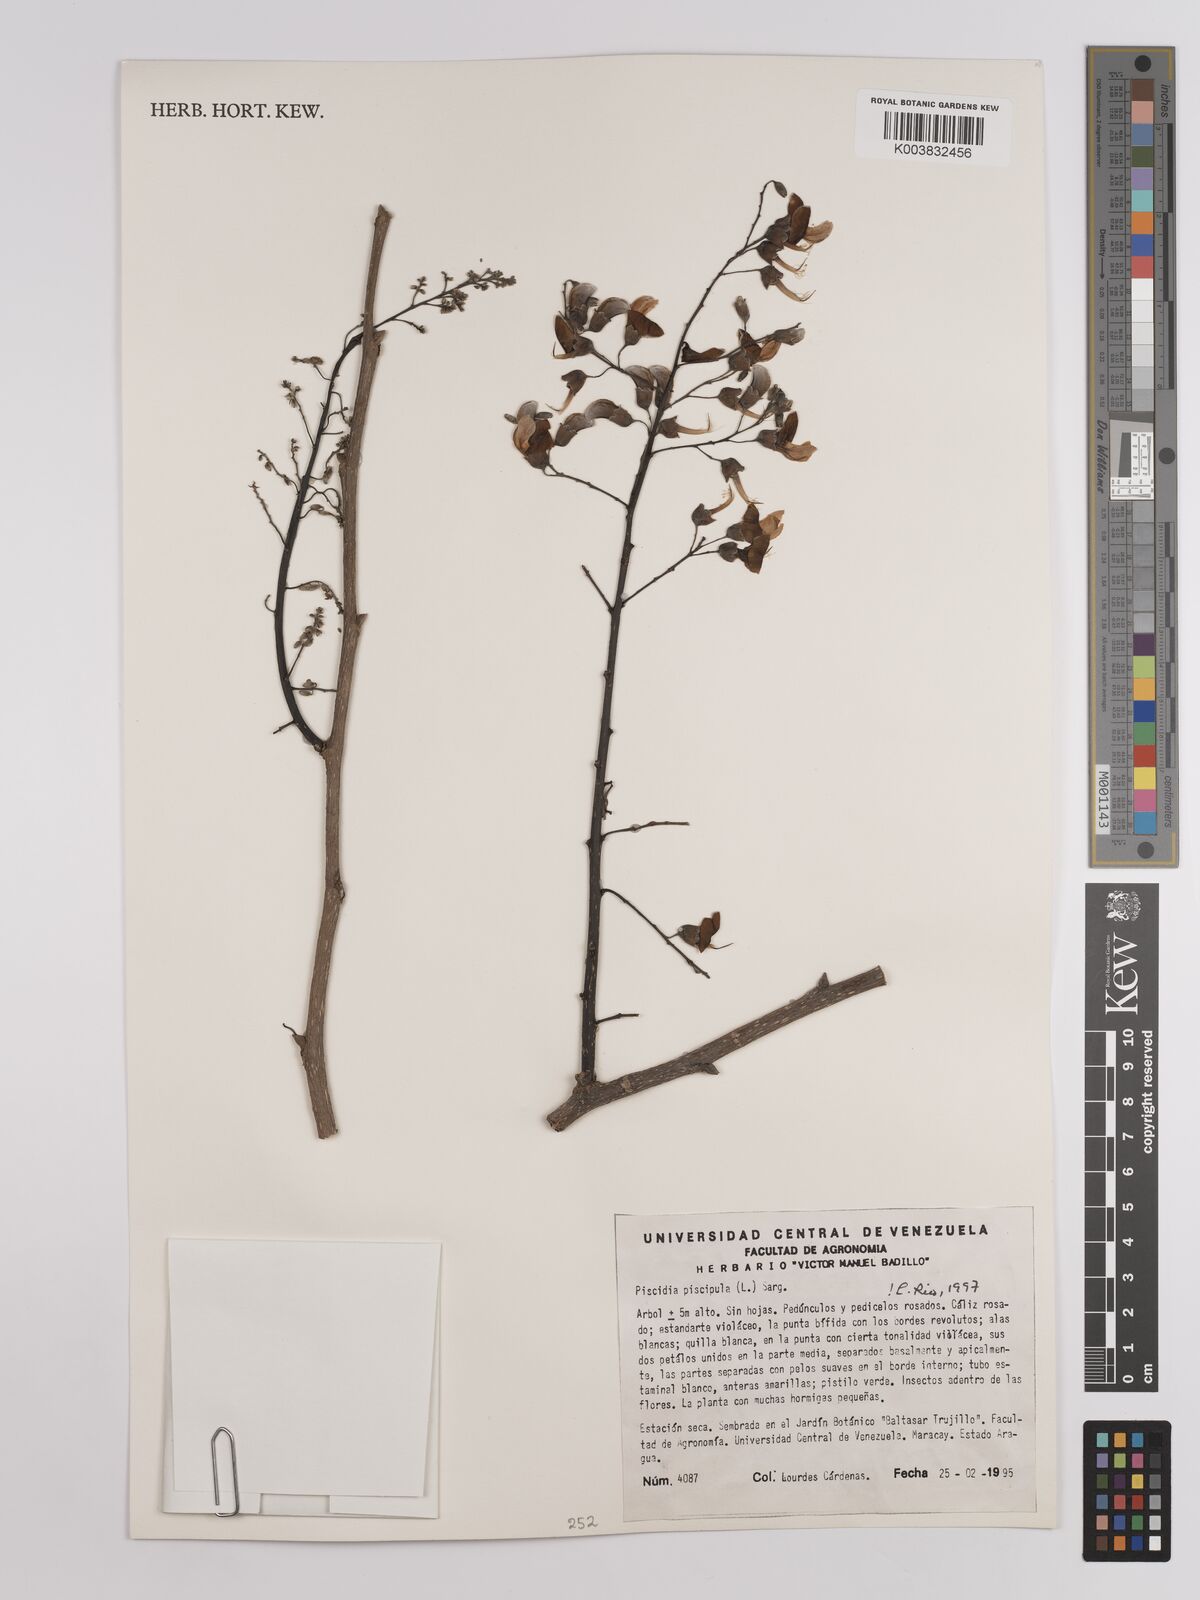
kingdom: Plantae
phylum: Tracheophyta
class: Magnoliopsida
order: Fabales
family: Fabaceae
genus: Piscidia
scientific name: Piscidia piscipula
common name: Florida fishpoison tree
